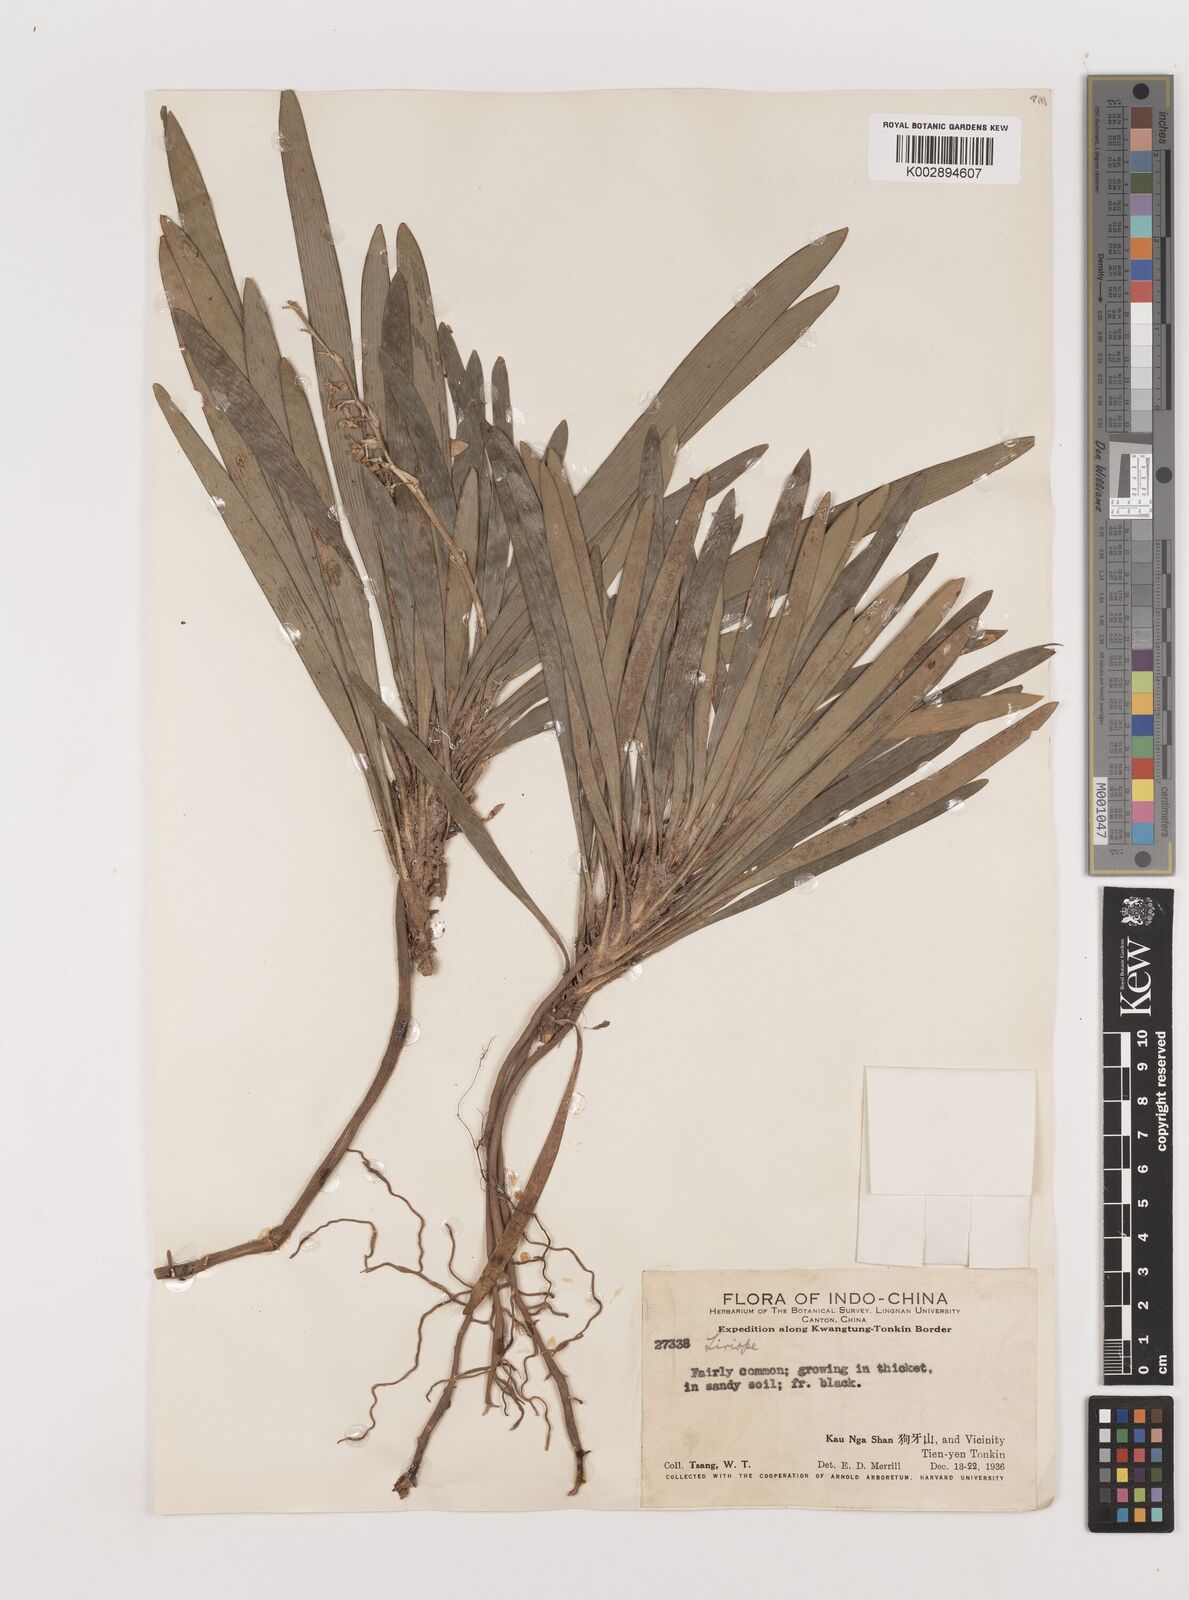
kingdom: Plantae
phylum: Tracheophyta
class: Liliopsida
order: Asparagales
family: Asparagaceae
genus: Liriope
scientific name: Liriope
